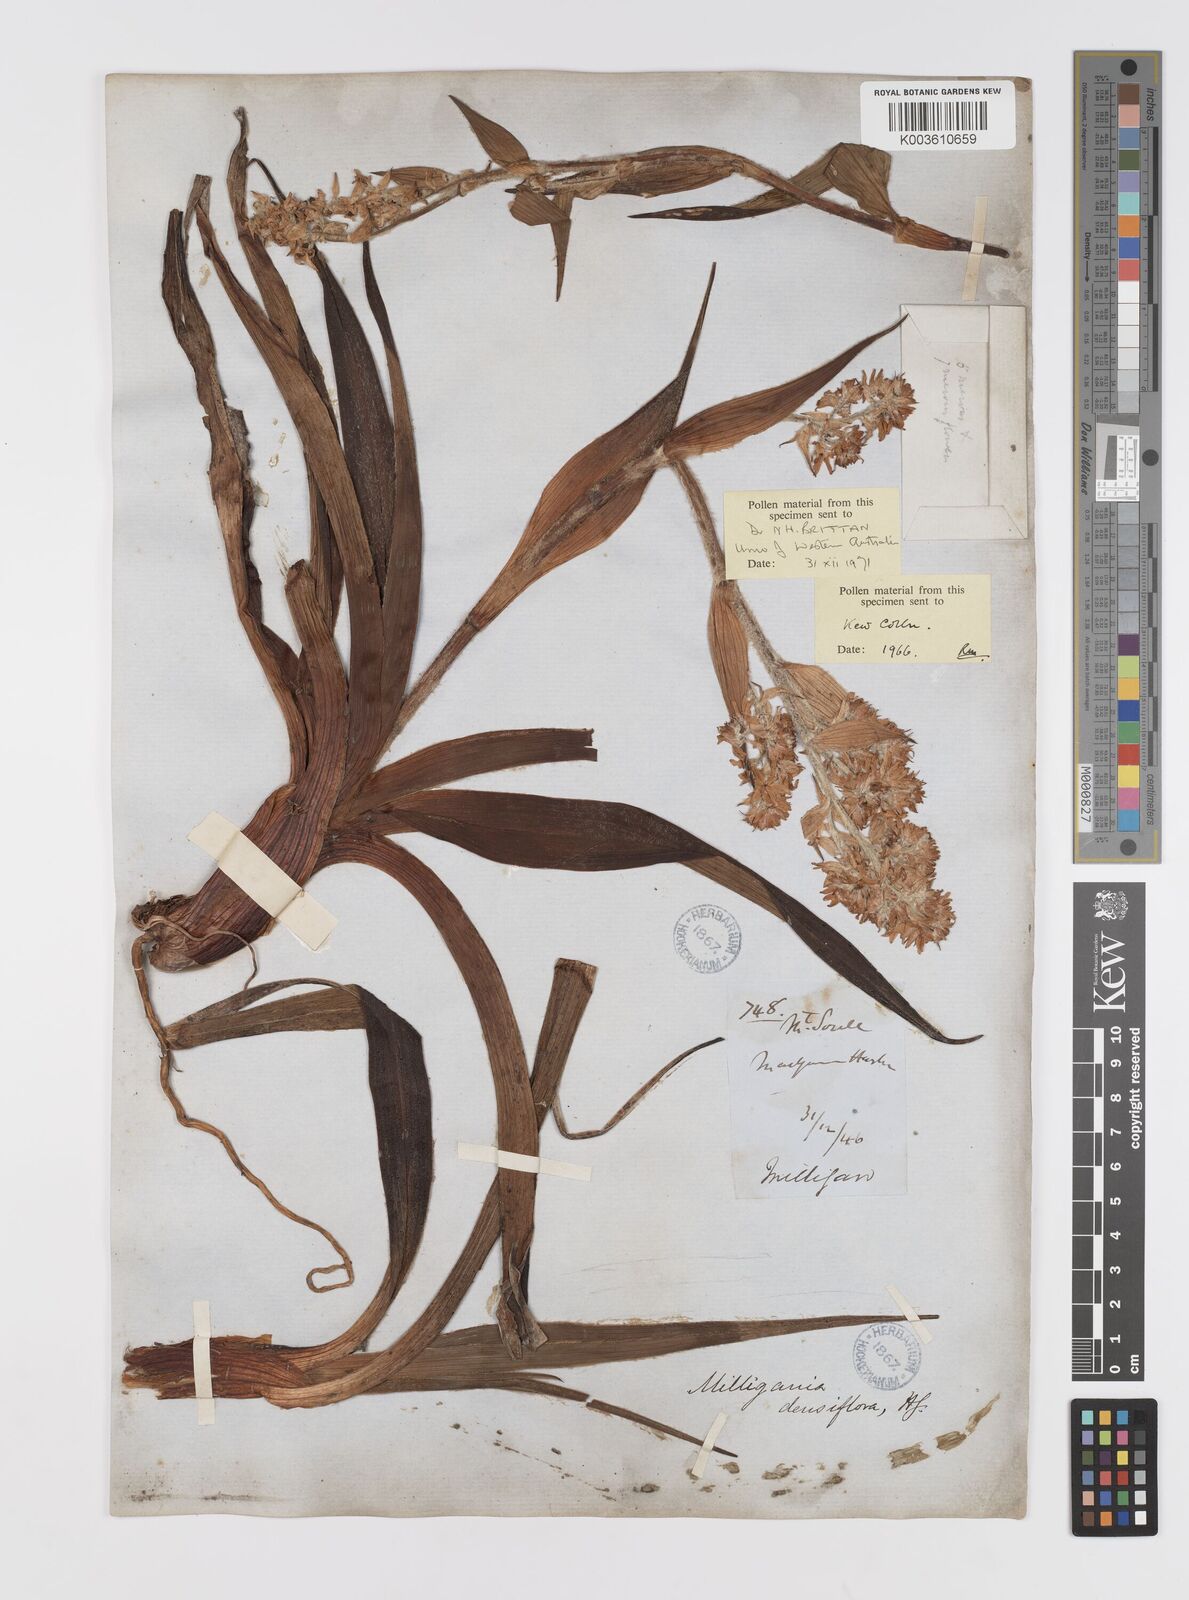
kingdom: Plantae
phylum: Tracheophyta
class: Liliopsida
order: Asparagales
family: Asteliaceae
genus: Milligania
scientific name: Milligania densiflora
